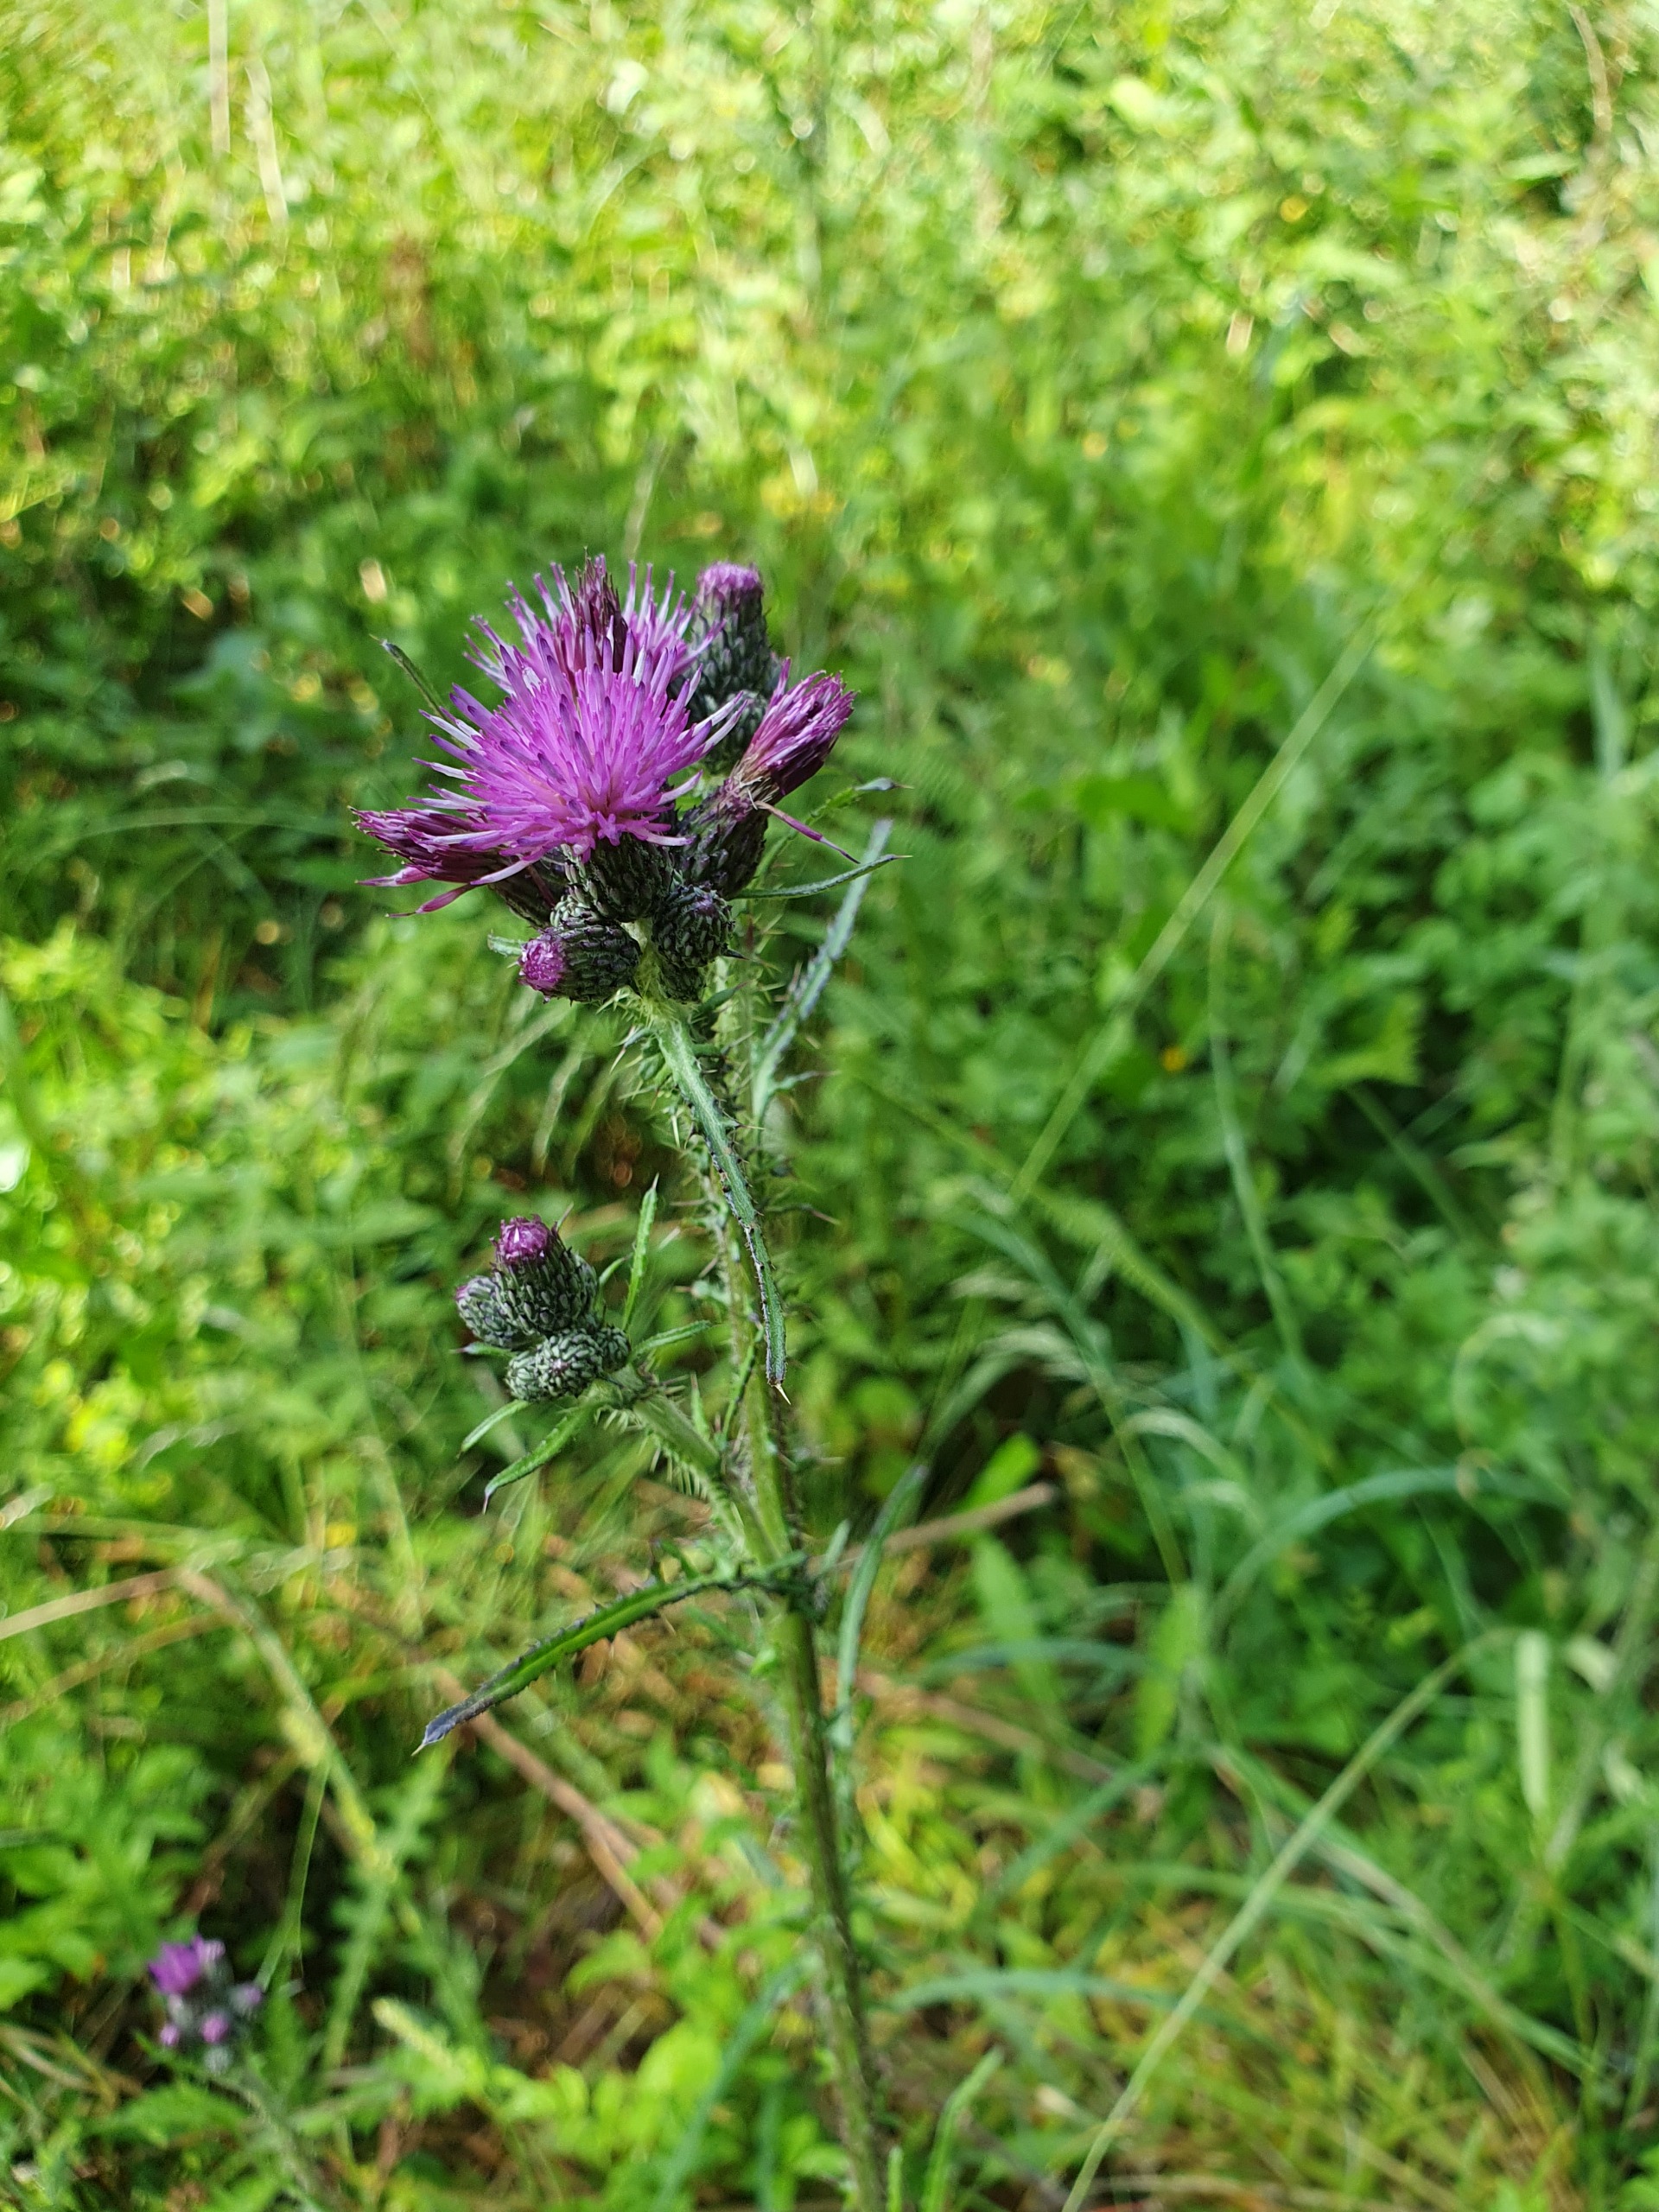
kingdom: Plantae
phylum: Tracheophyta
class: Magnoliopsida
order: Asterales
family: Asteraceae
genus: Cirsium
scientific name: Cirsium palustre
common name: Kær-tidsel
